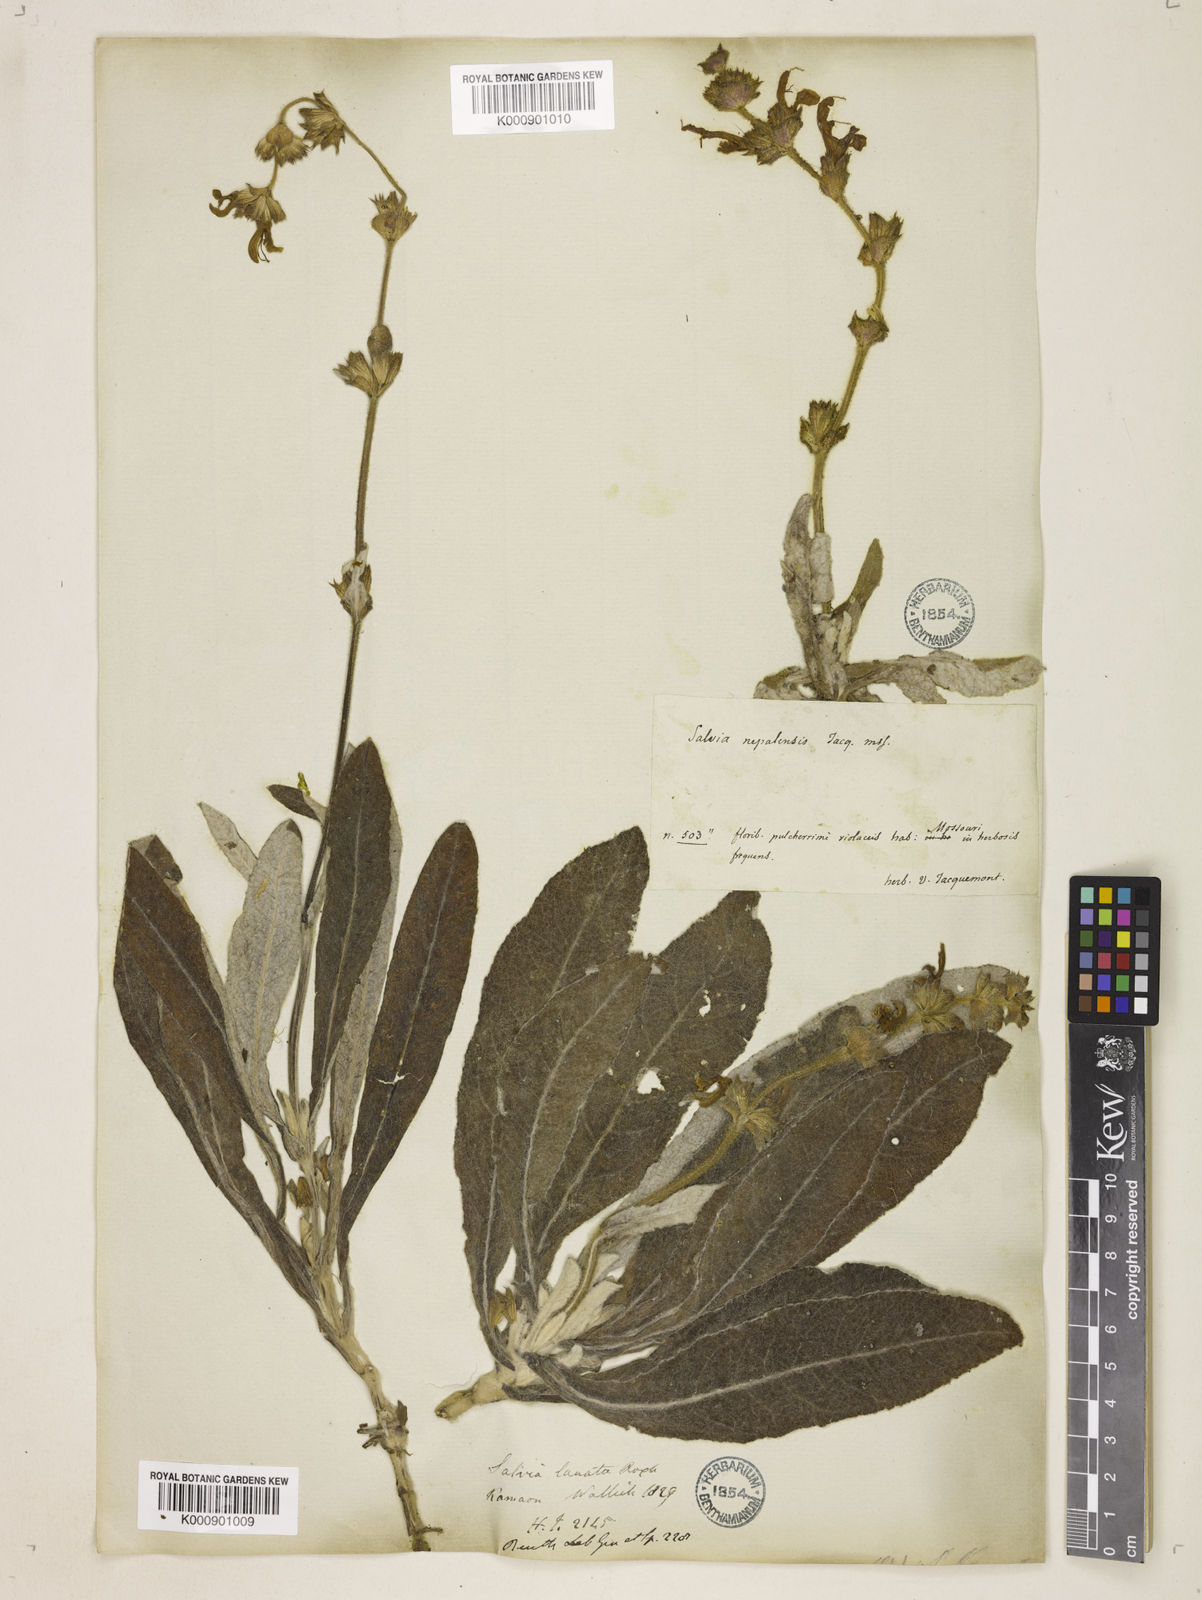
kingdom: Plantae
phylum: Tracheophyta
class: Magnoliopsida
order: Lamiales
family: Lamiaceae
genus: Salvia
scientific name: Salvia
